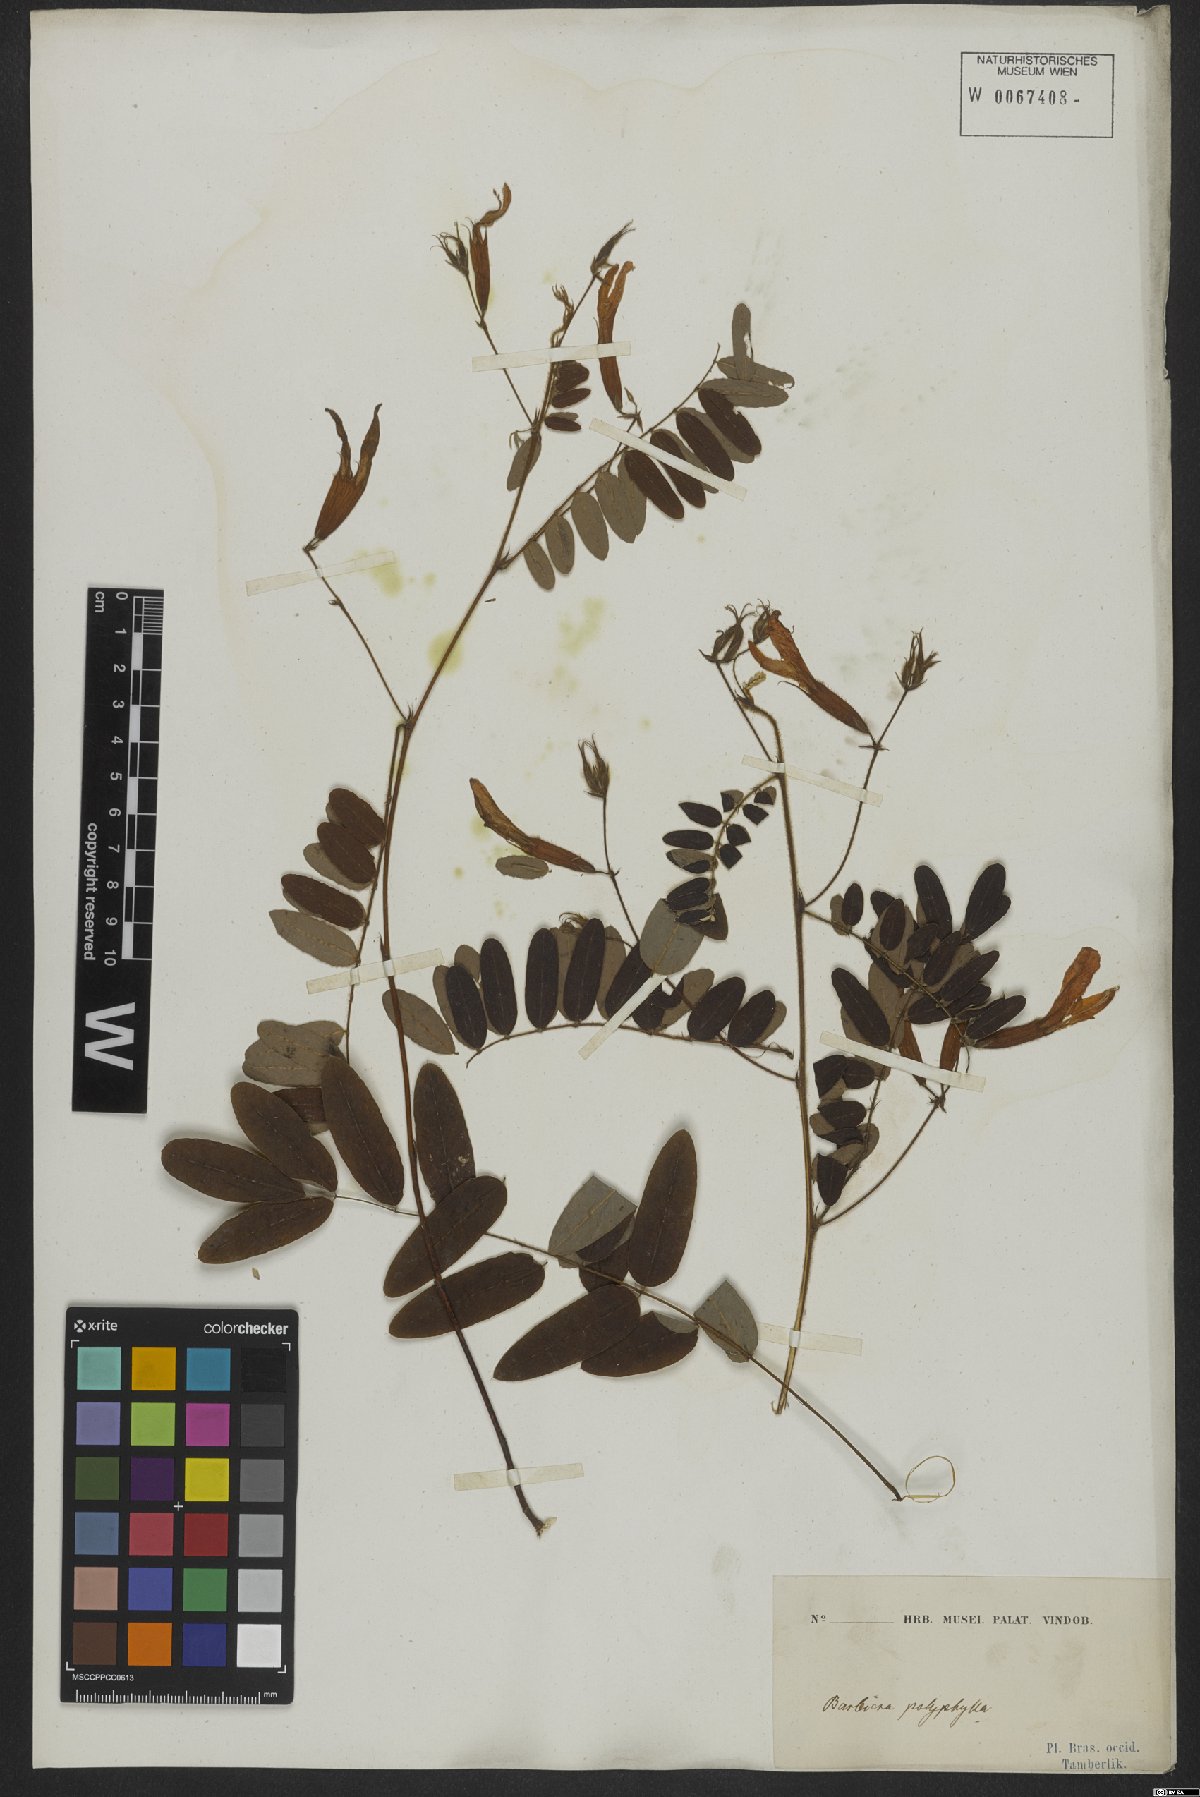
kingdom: Plantae
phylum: Tracheophyta
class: Magnoliopsida
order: Fabales
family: Fabaceae
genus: Barbieria
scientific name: Barbieria pinnata
